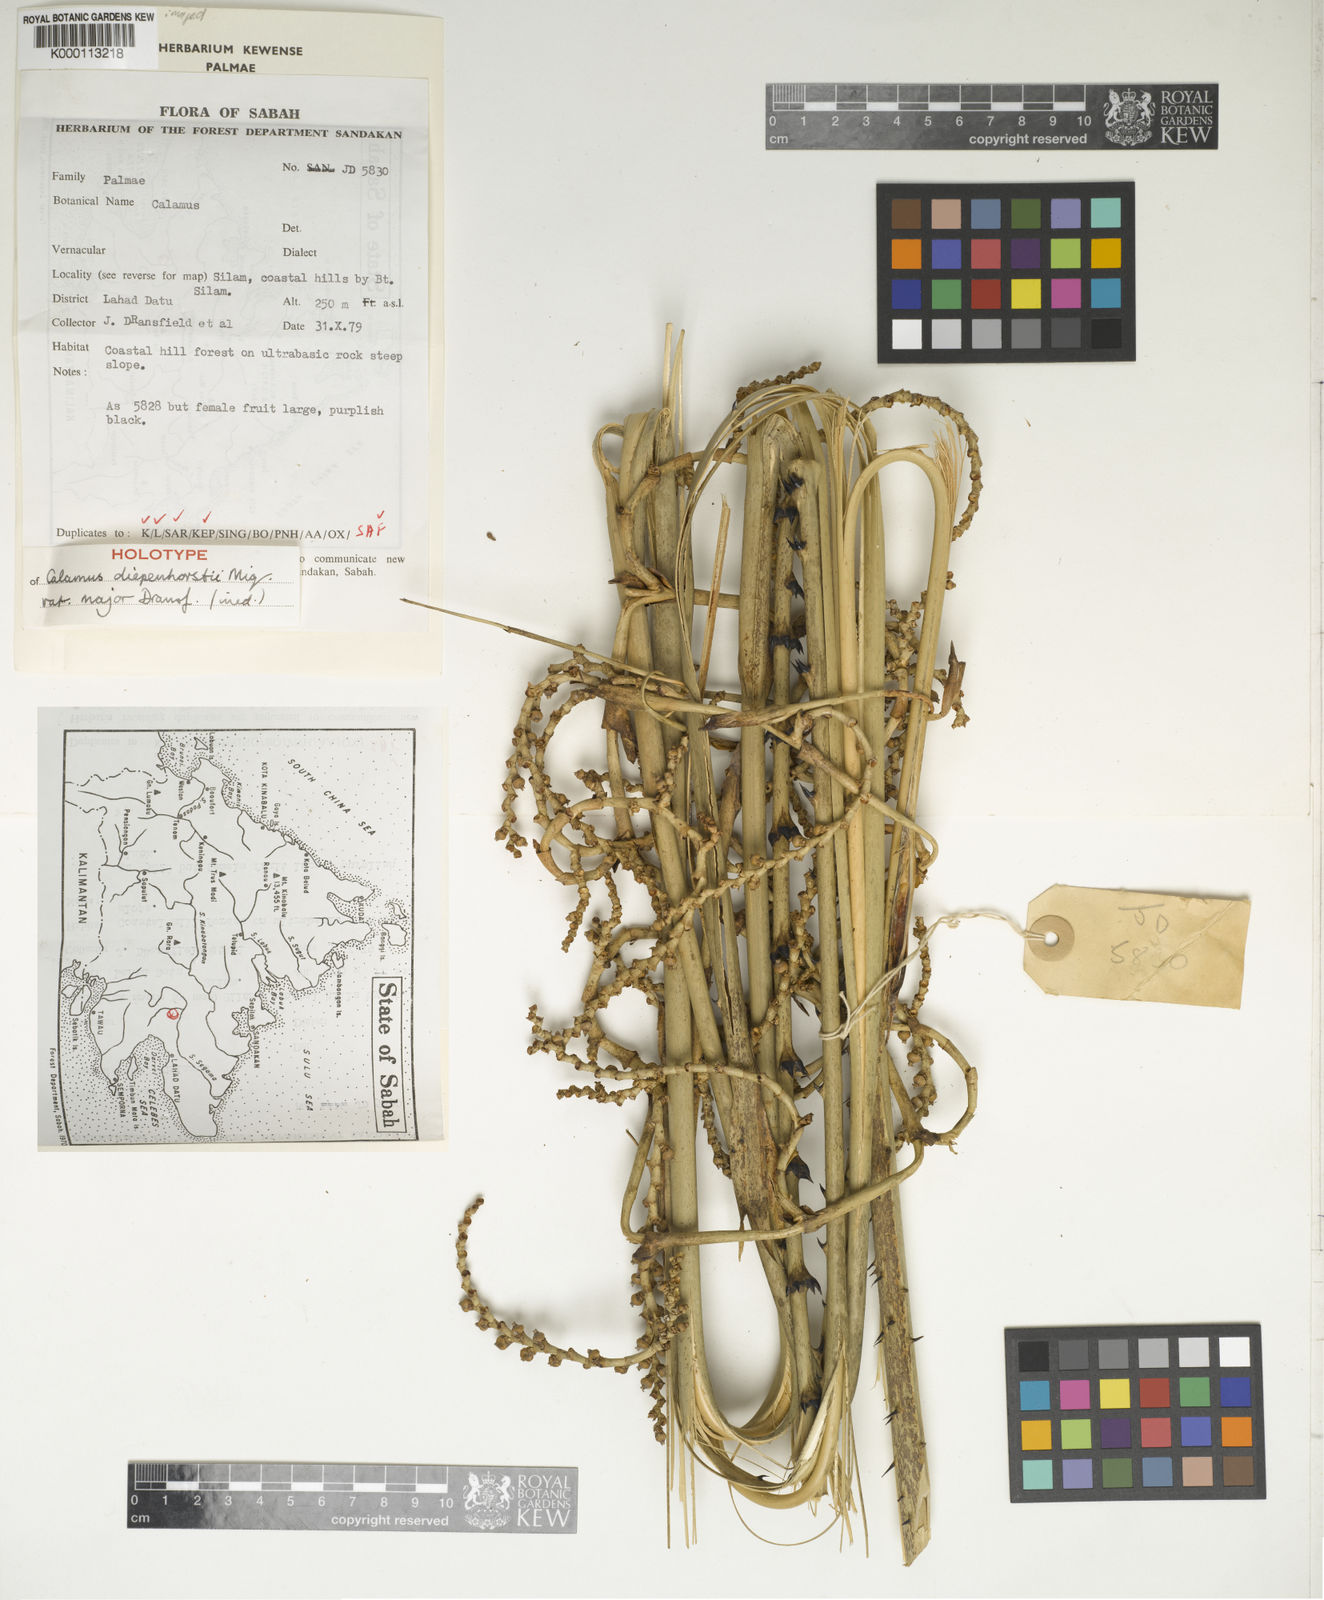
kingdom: Plantae
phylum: Tracheophyta
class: Liliopsida
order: Arecales
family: Arecaceae
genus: Calamus
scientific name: Calamus diepenhorstii
